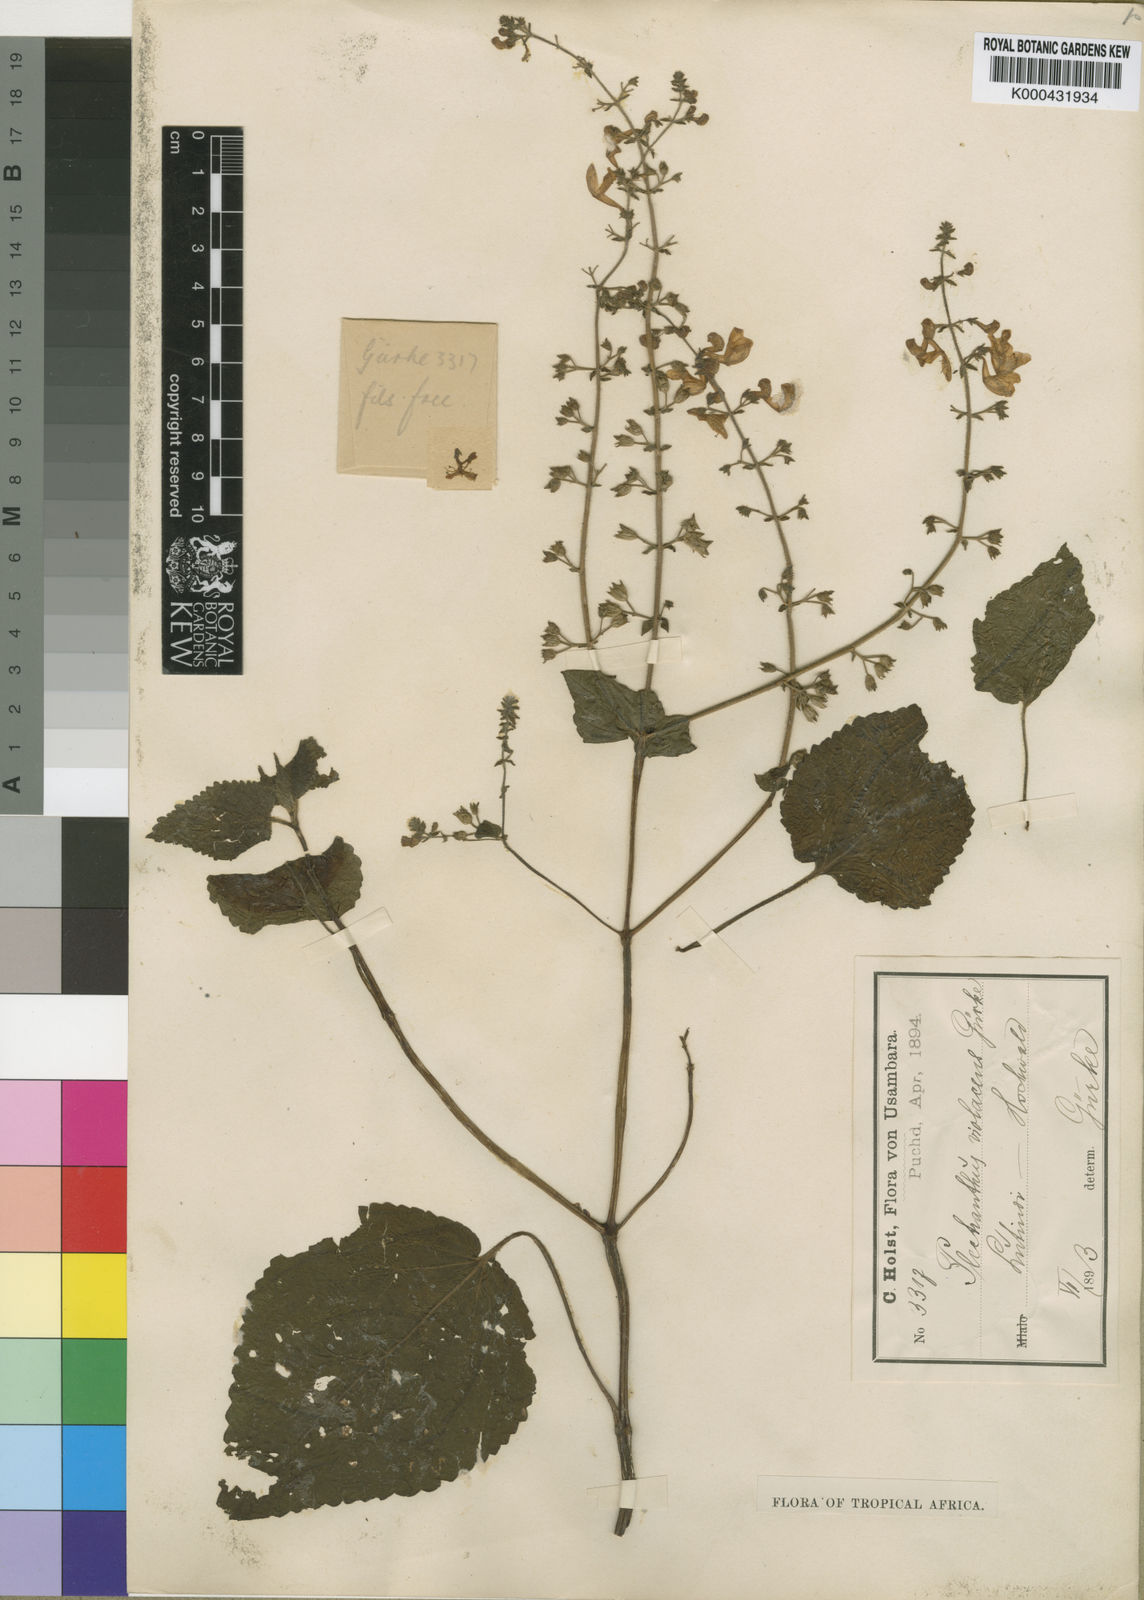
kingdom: Plantae
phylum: Tracheophyta
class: Magnoliopsida
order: Lamiales
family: Lamiaceae
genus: Equilabium
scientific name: Equilabium laxiflorum
